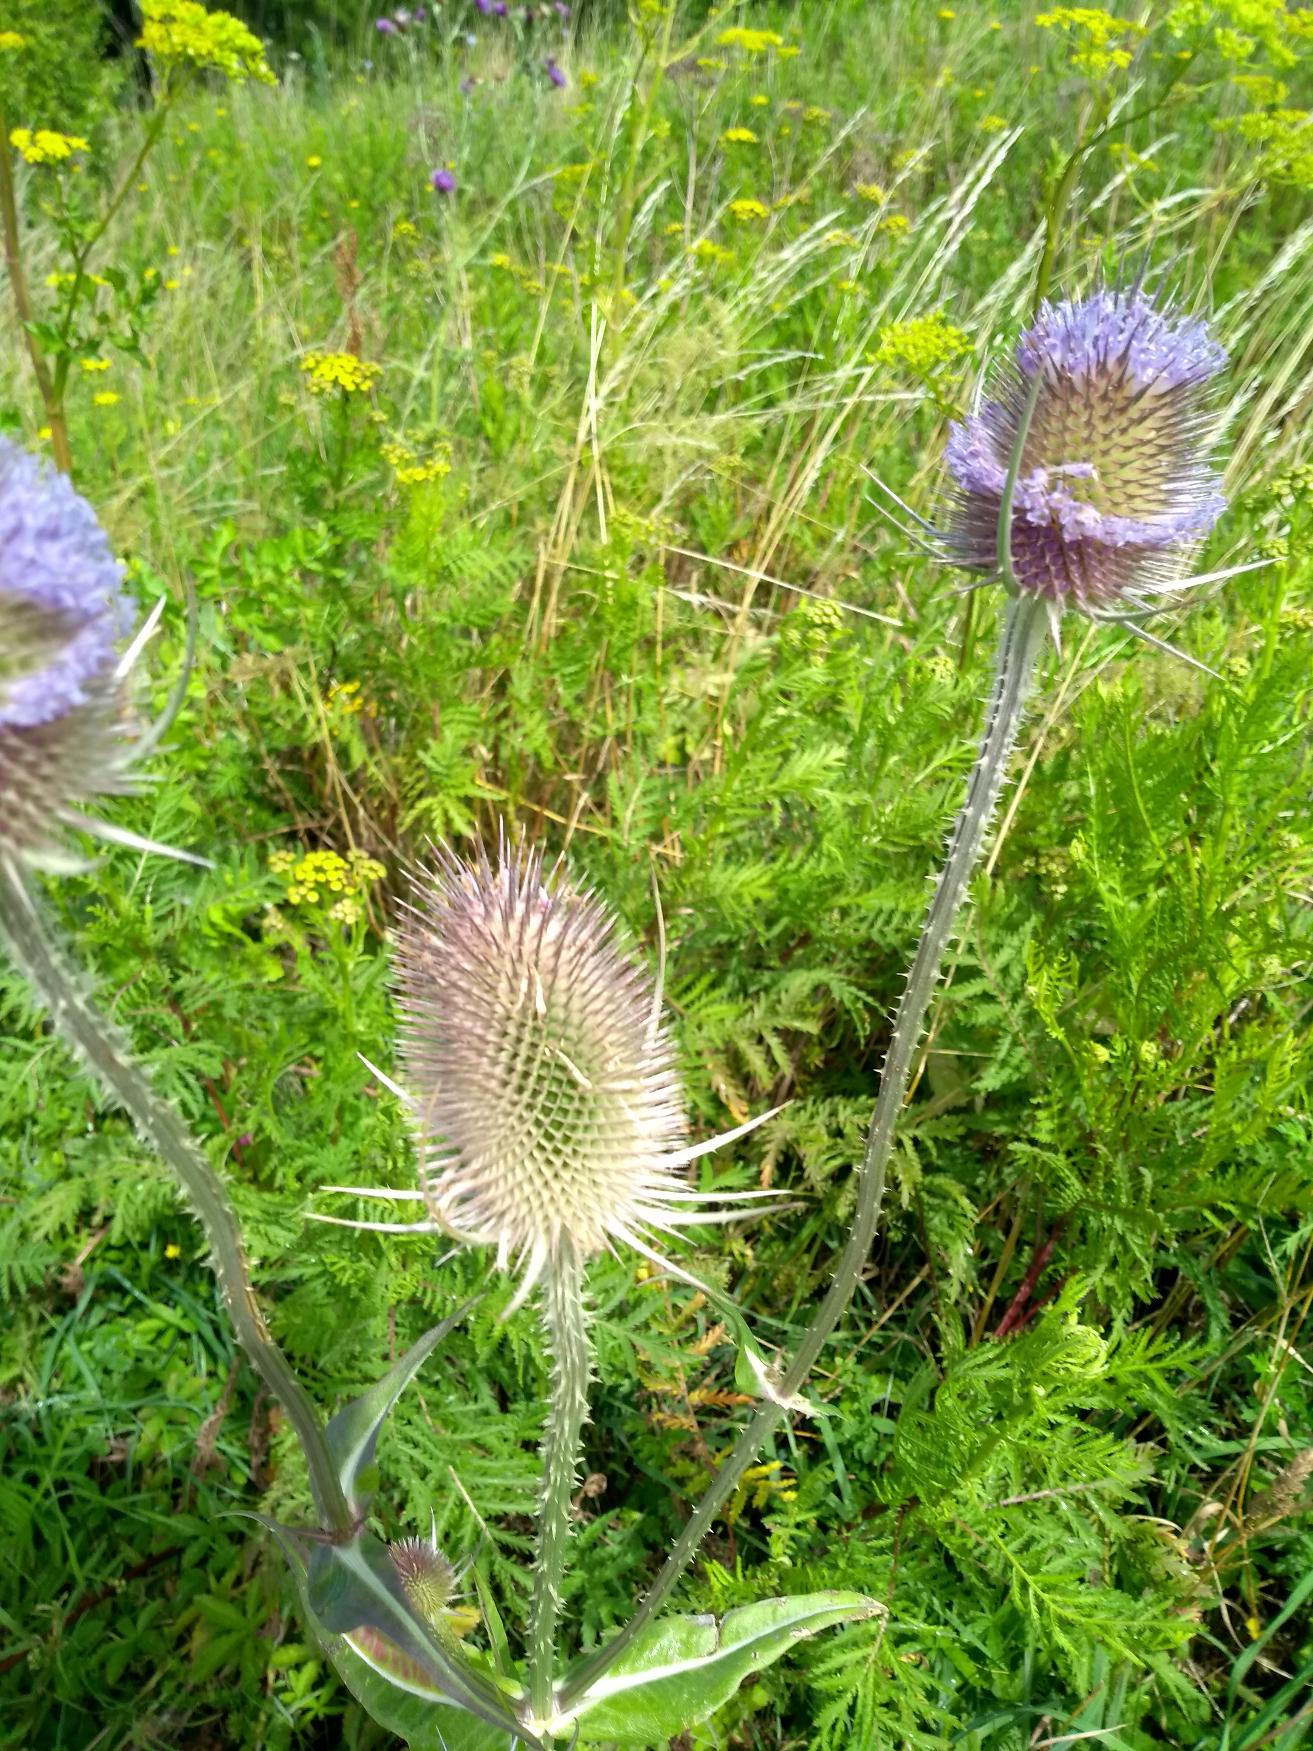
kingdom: Plantae
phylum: Tracheophyta
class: Magnoliopsida
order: Dipsacales
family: Caprifoliaceae
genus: Dipsacus
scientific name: Dipsacus fullonum
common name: Gærde-kartebolle
